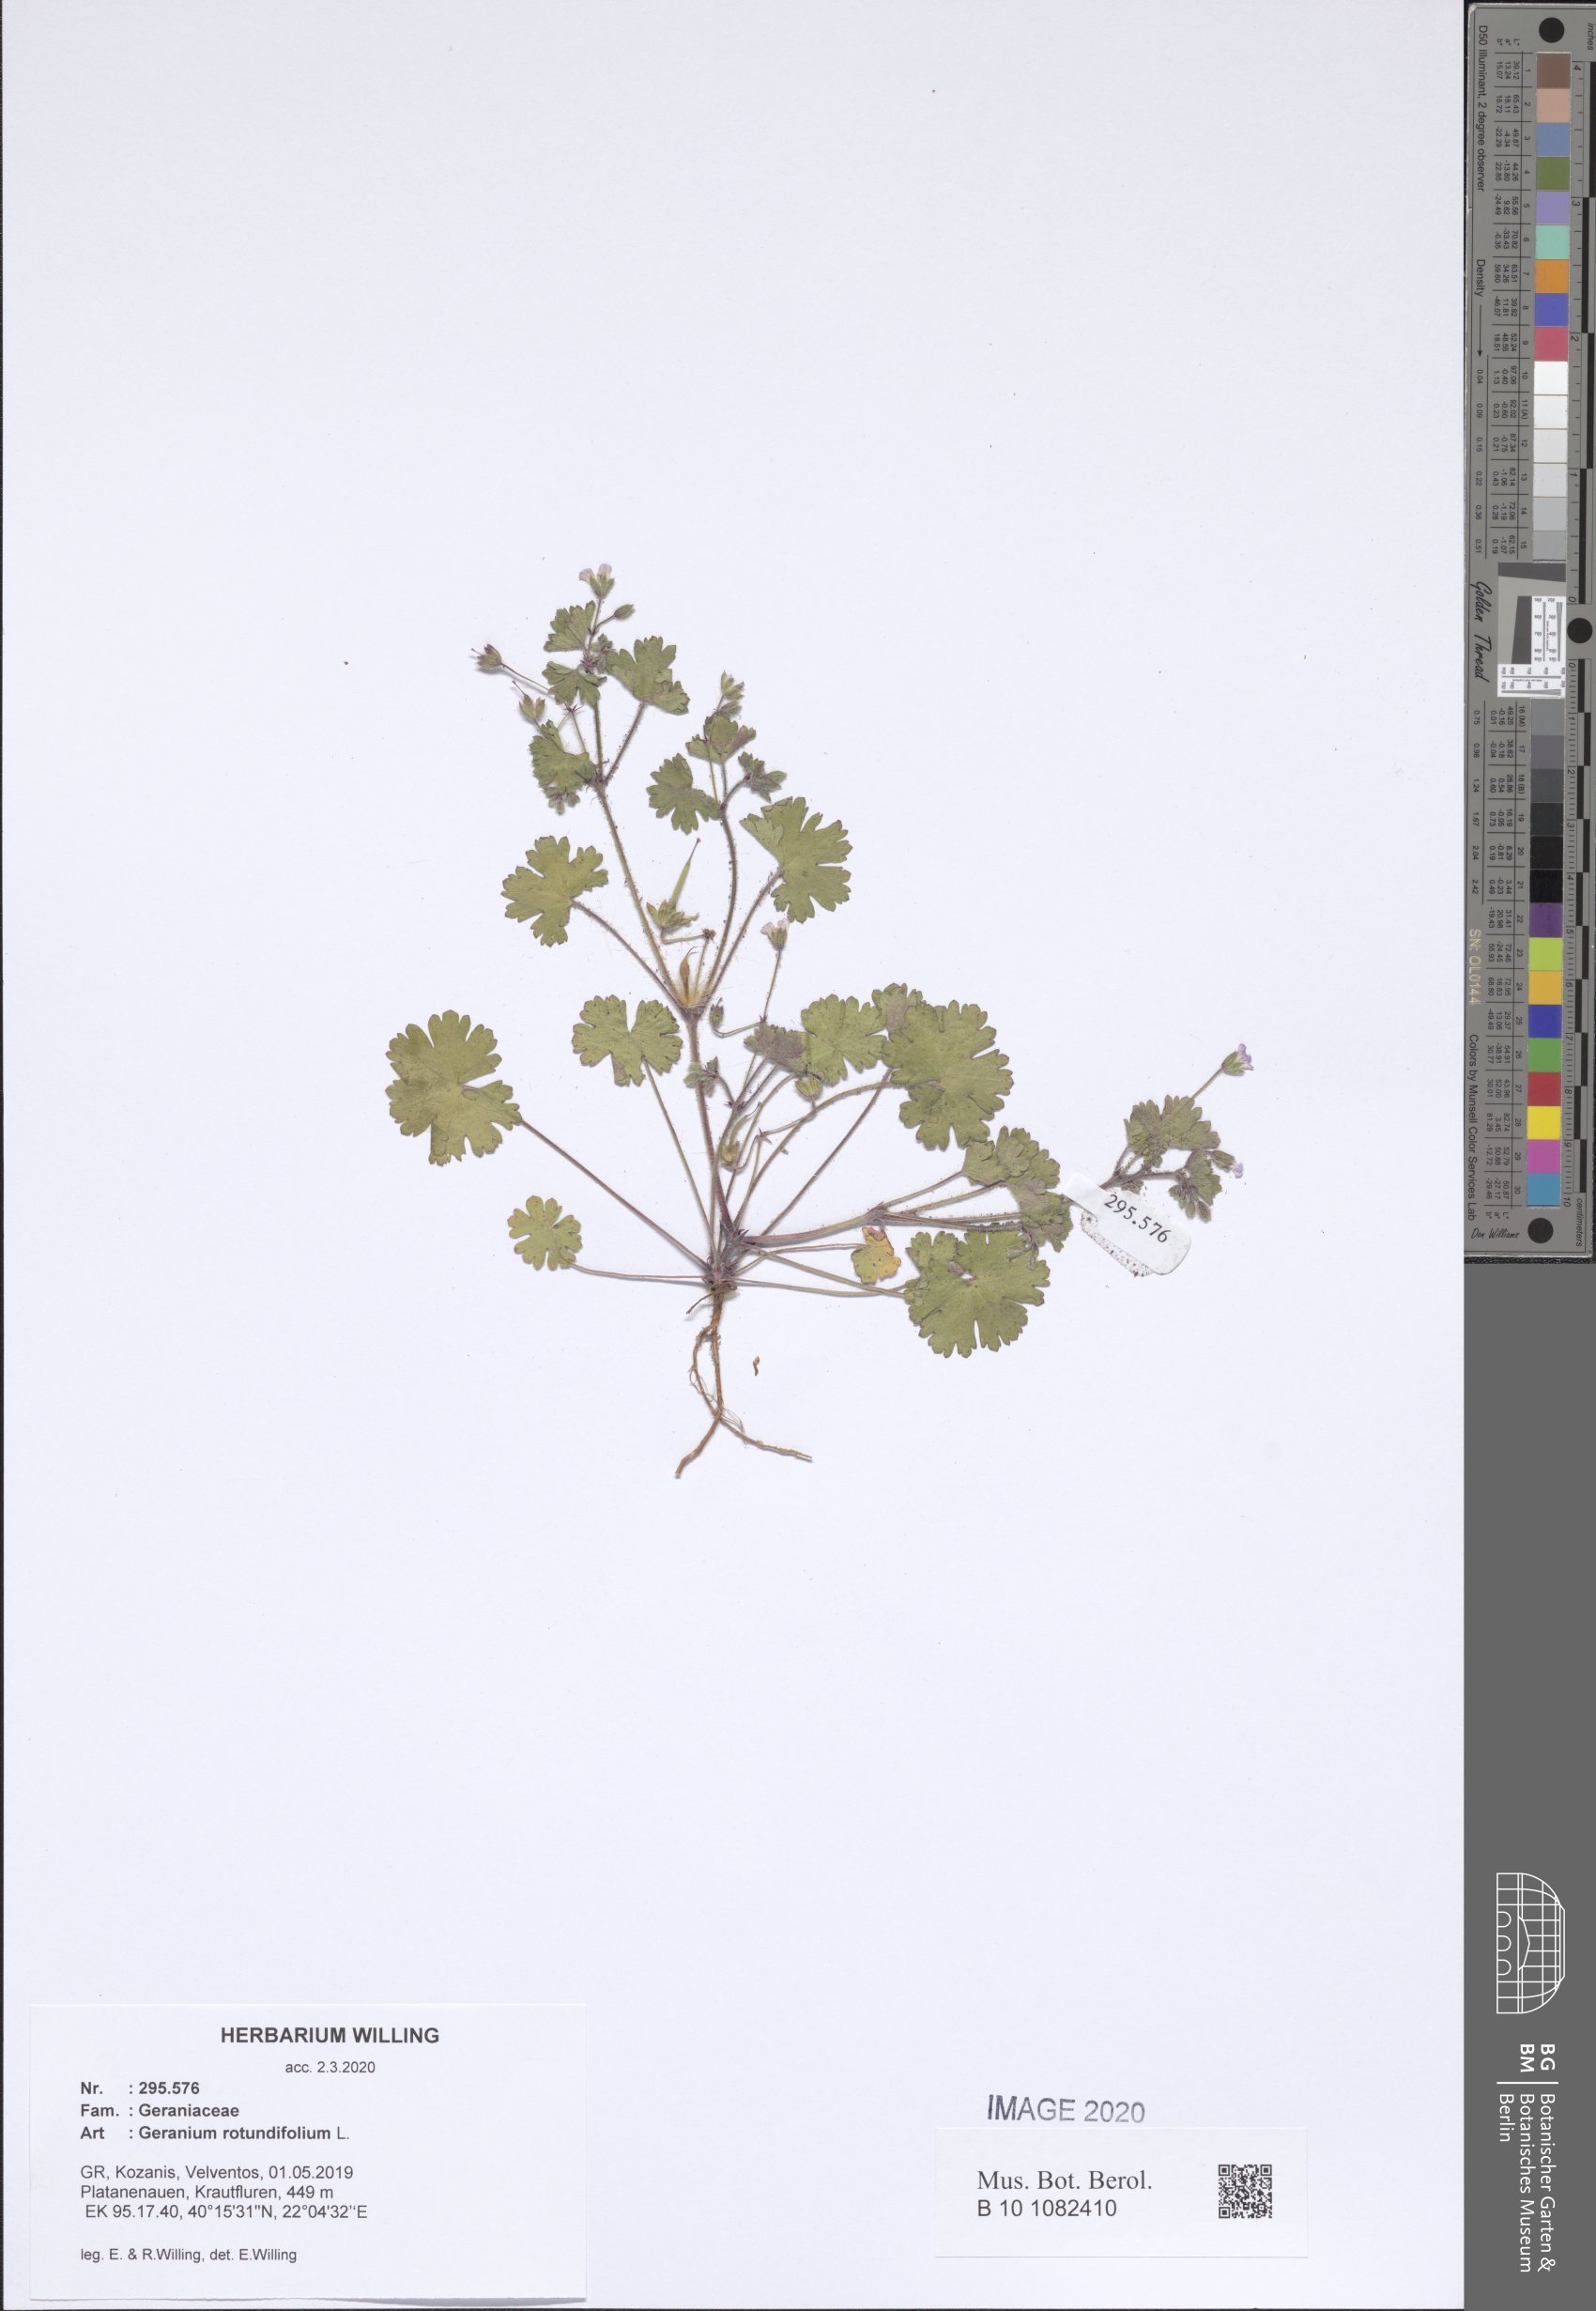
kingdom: Plantae
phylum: Tracheophyta
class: Magnoliopsida
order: Geraniales
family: Geraniaceae
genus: Geranium
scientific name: Geranium rotundifolium
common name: Round-leaved crane's-bill
